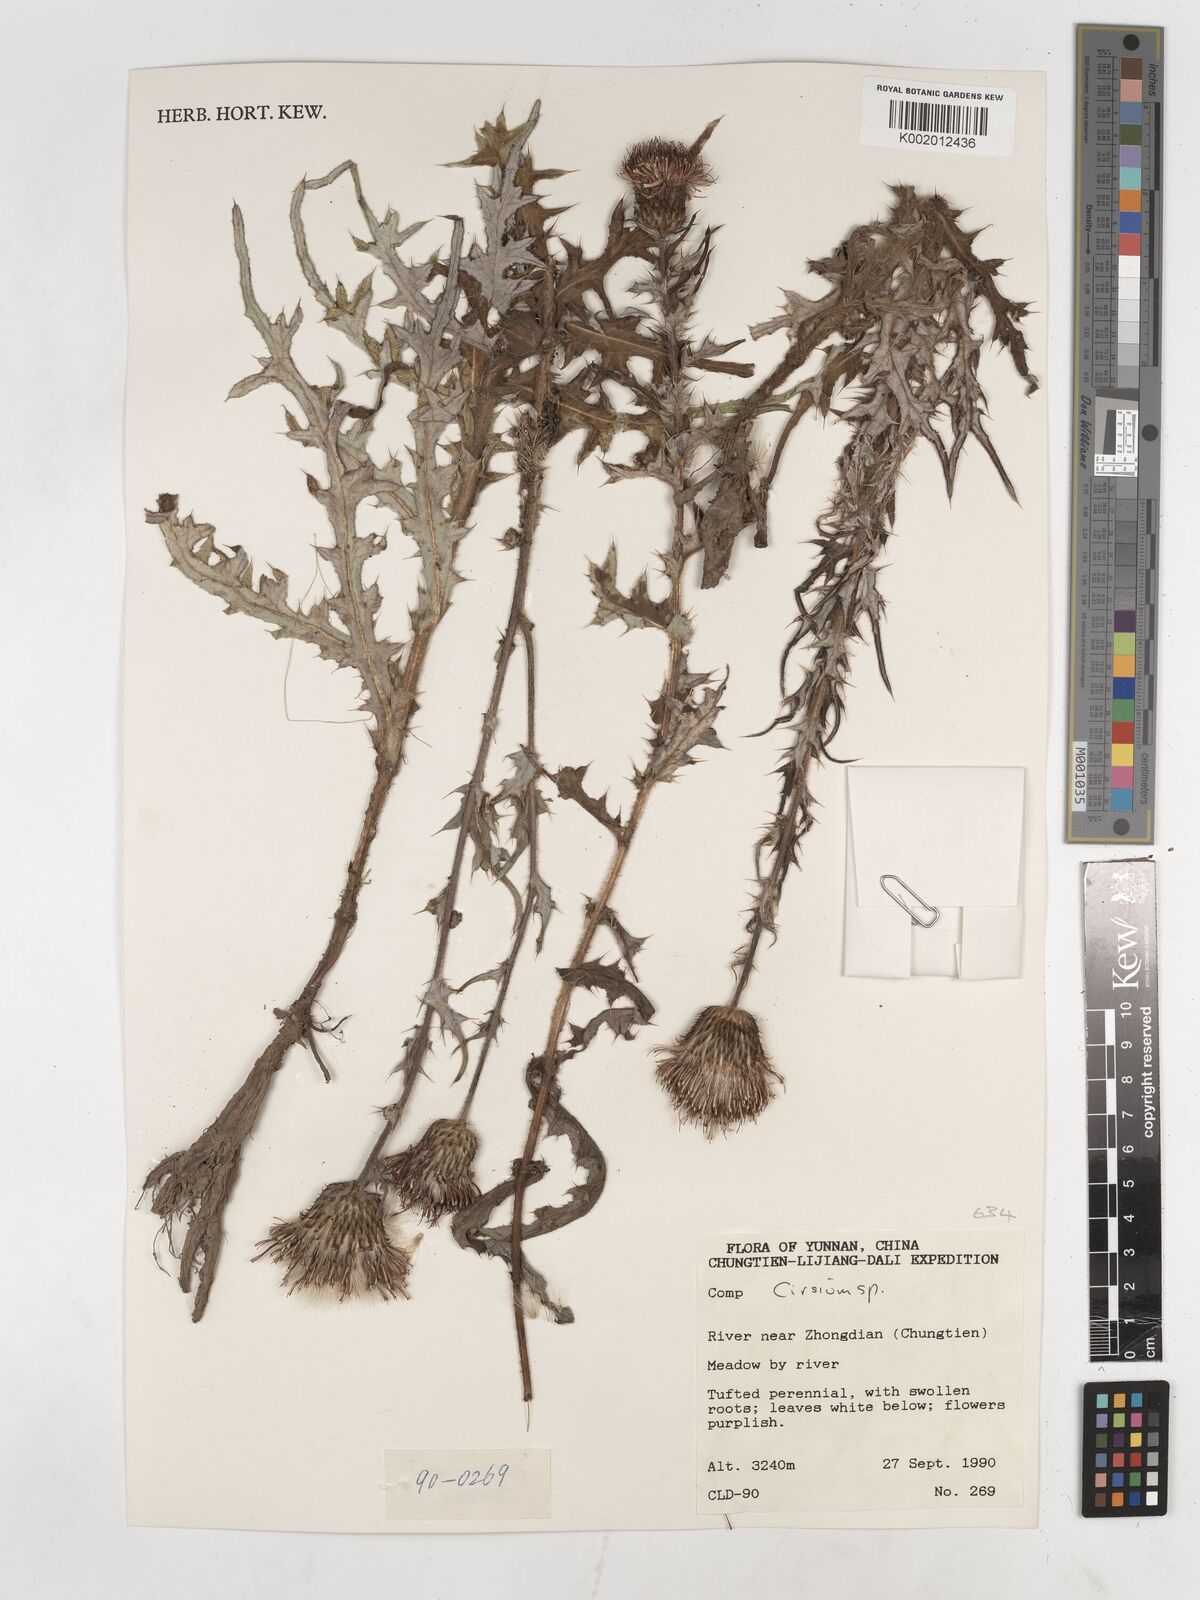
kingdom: Plantae
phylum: Tracheophyta
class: Magnoliopsida
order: Asterales
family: Asteraceae
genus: Cirsium
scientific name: Cirsium
